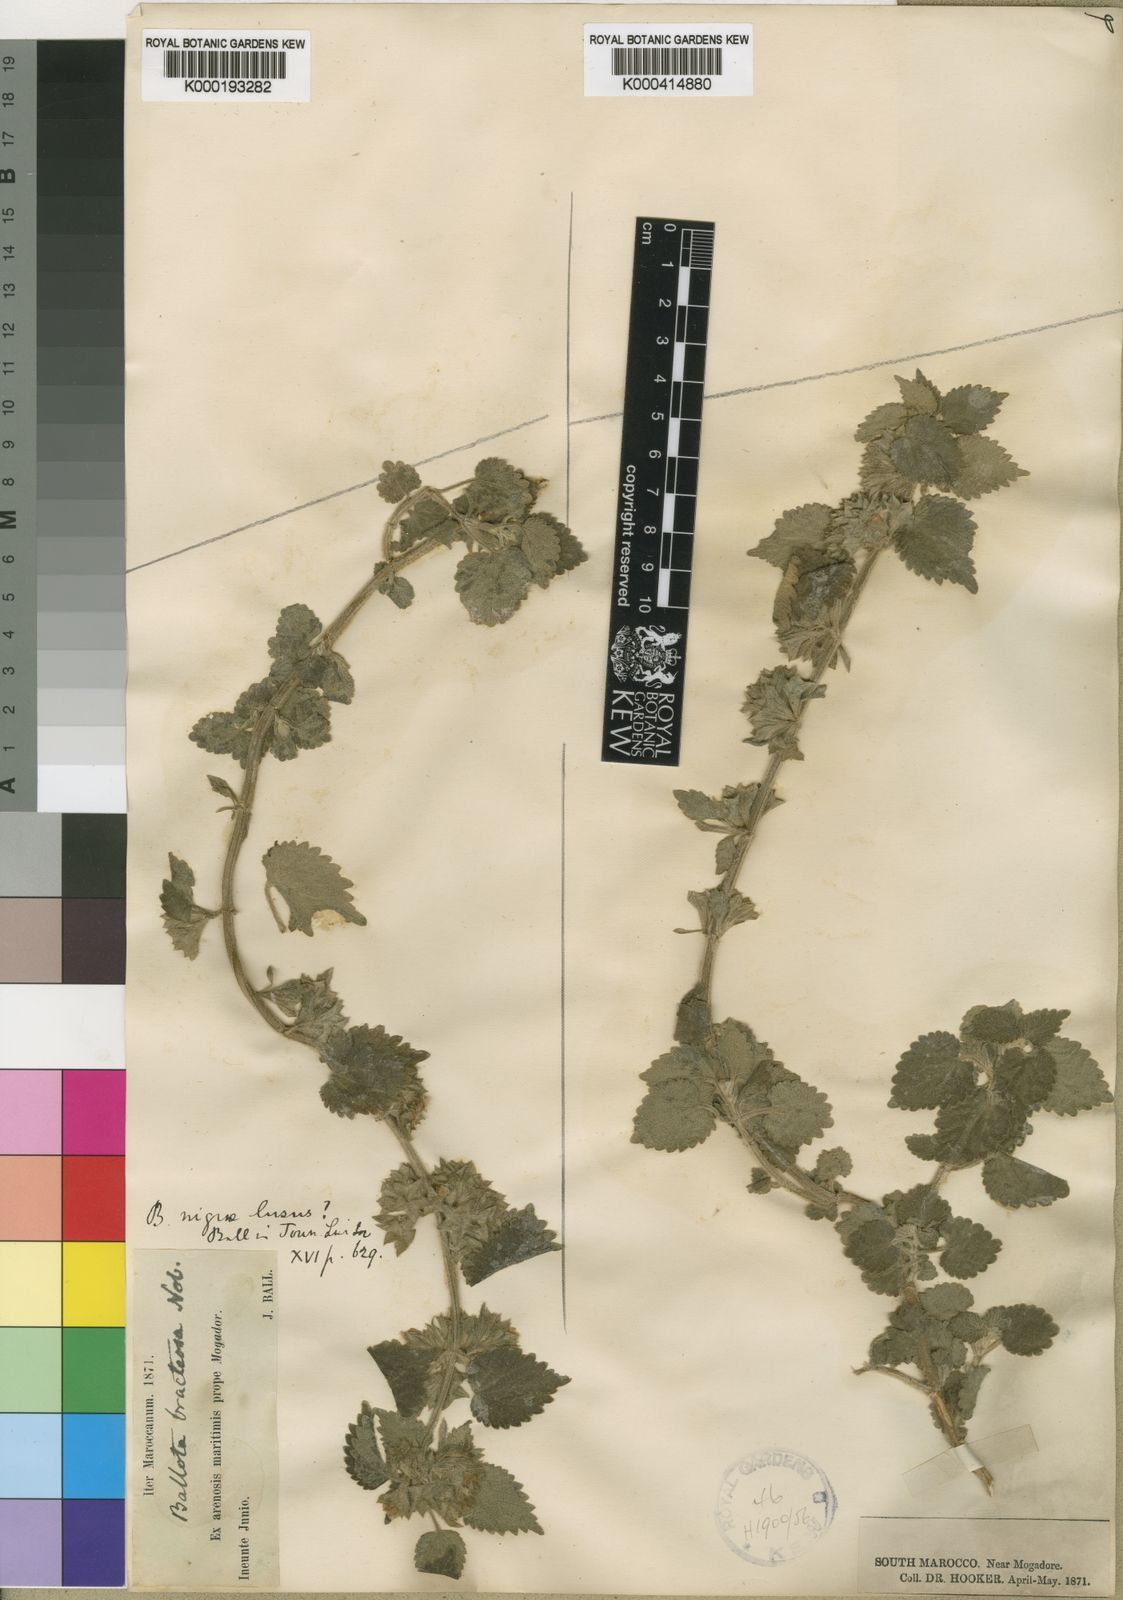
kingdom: Plantae
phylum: Tracheophyta
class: Magnoliopsida
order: Lamiales
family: Lamiaceae
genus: Ballota
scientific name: Ballota nigra
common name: Black horehound
